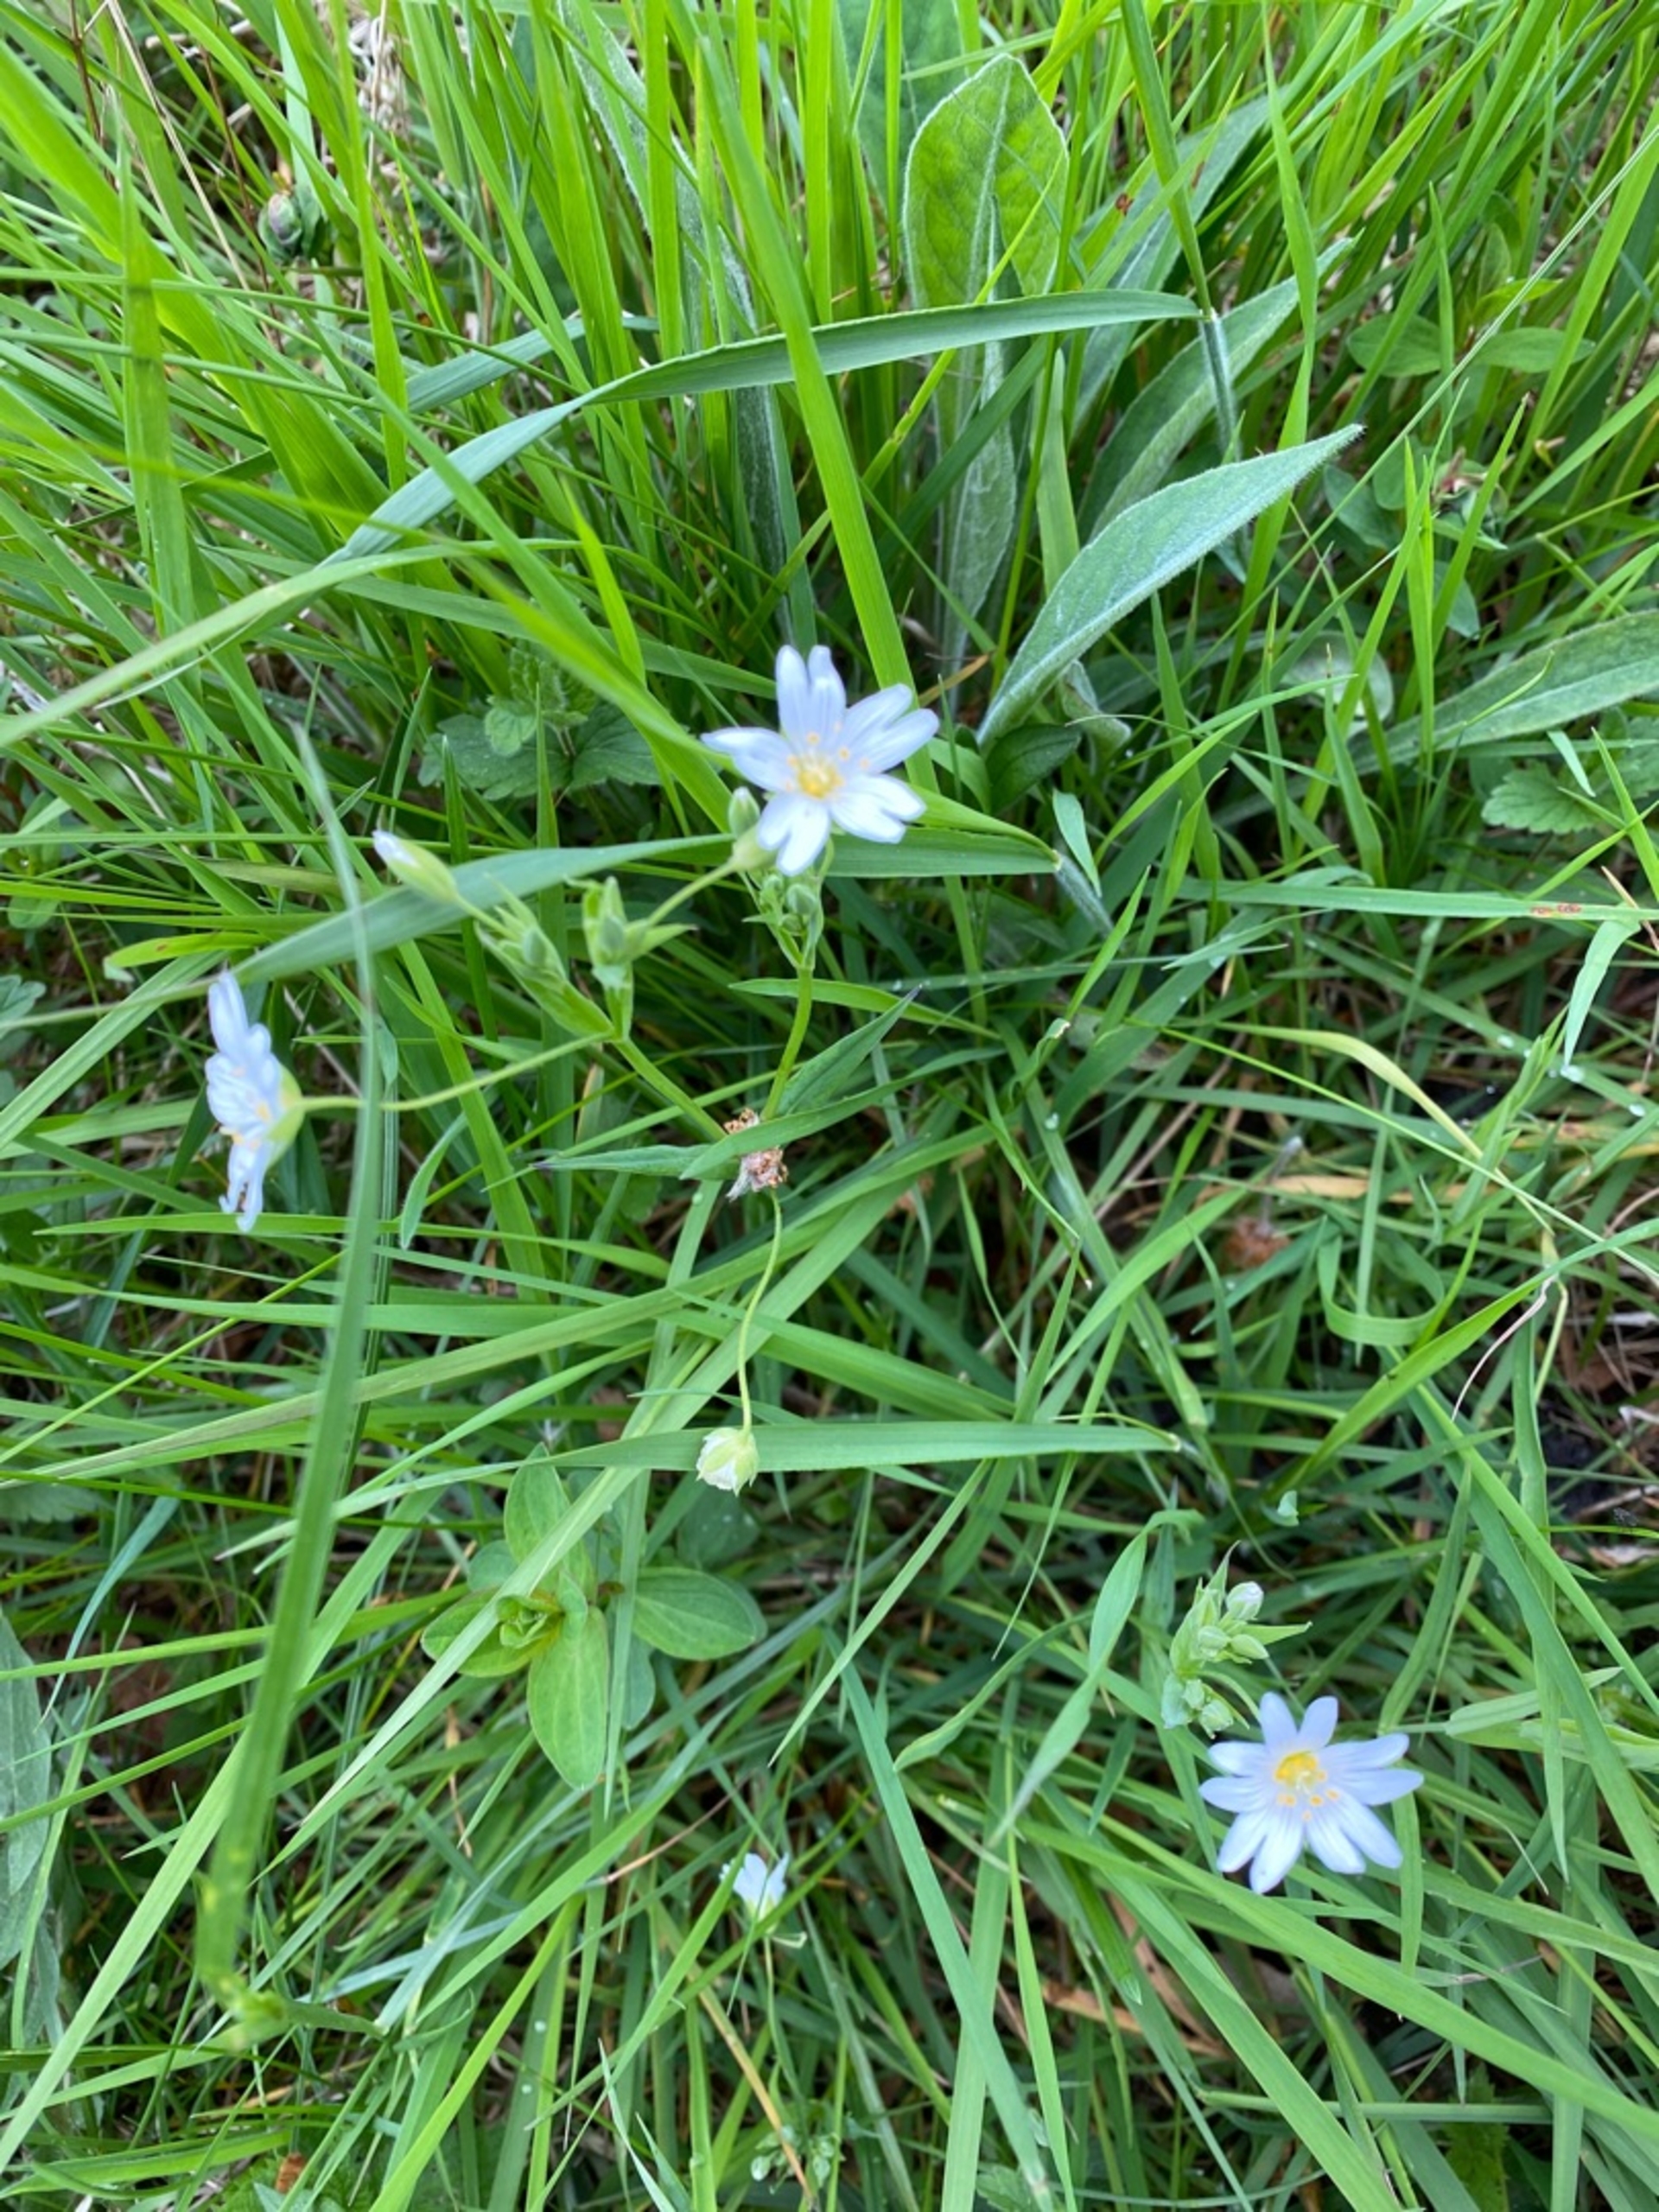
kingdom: Plantae
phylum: Tracheophyta
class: Magnoliopsida
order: Caryophyllales
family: Caryophyllaceae
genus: Rabelera
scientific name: Rabelera holostea
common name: Stor fladstjerne
